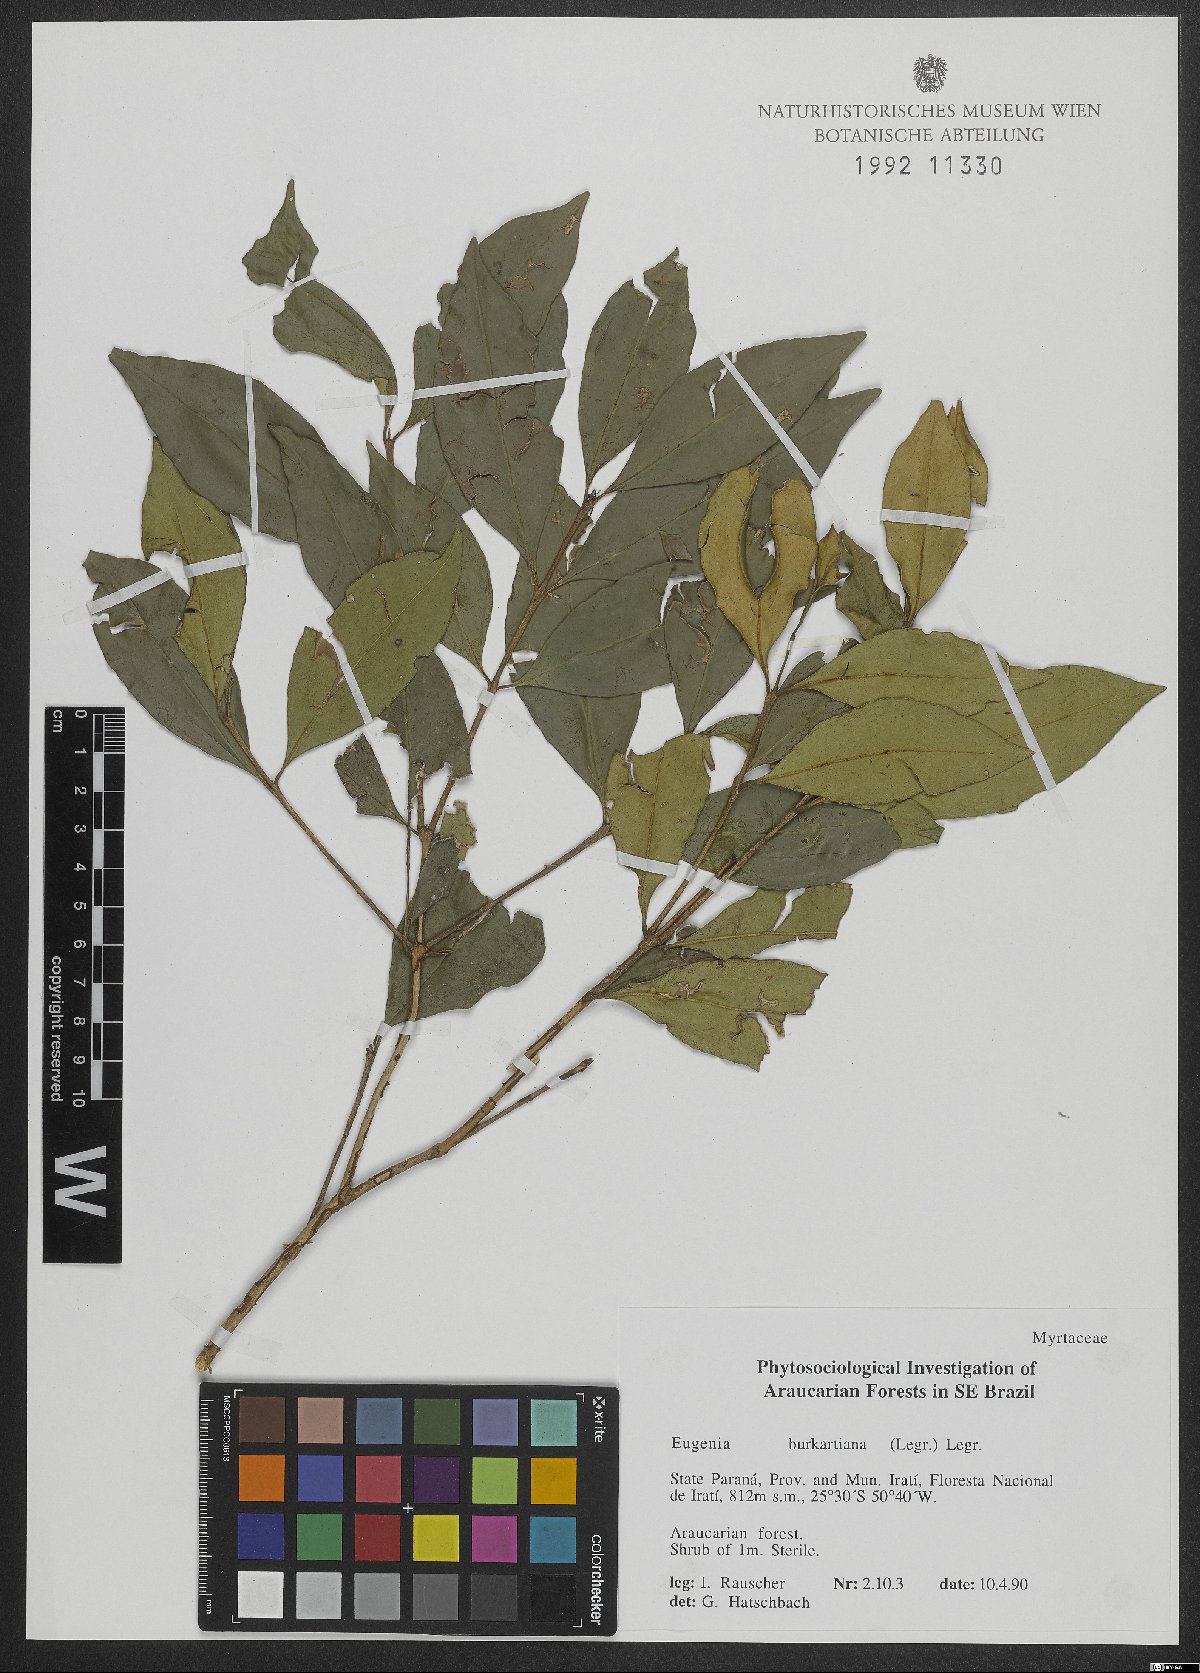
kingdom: Plantae
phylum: Tracheophyta
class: Magnoliopsida
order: Myrtales
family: Myrtaceae
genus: Eugenia
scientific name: Eugenia burkartiana
